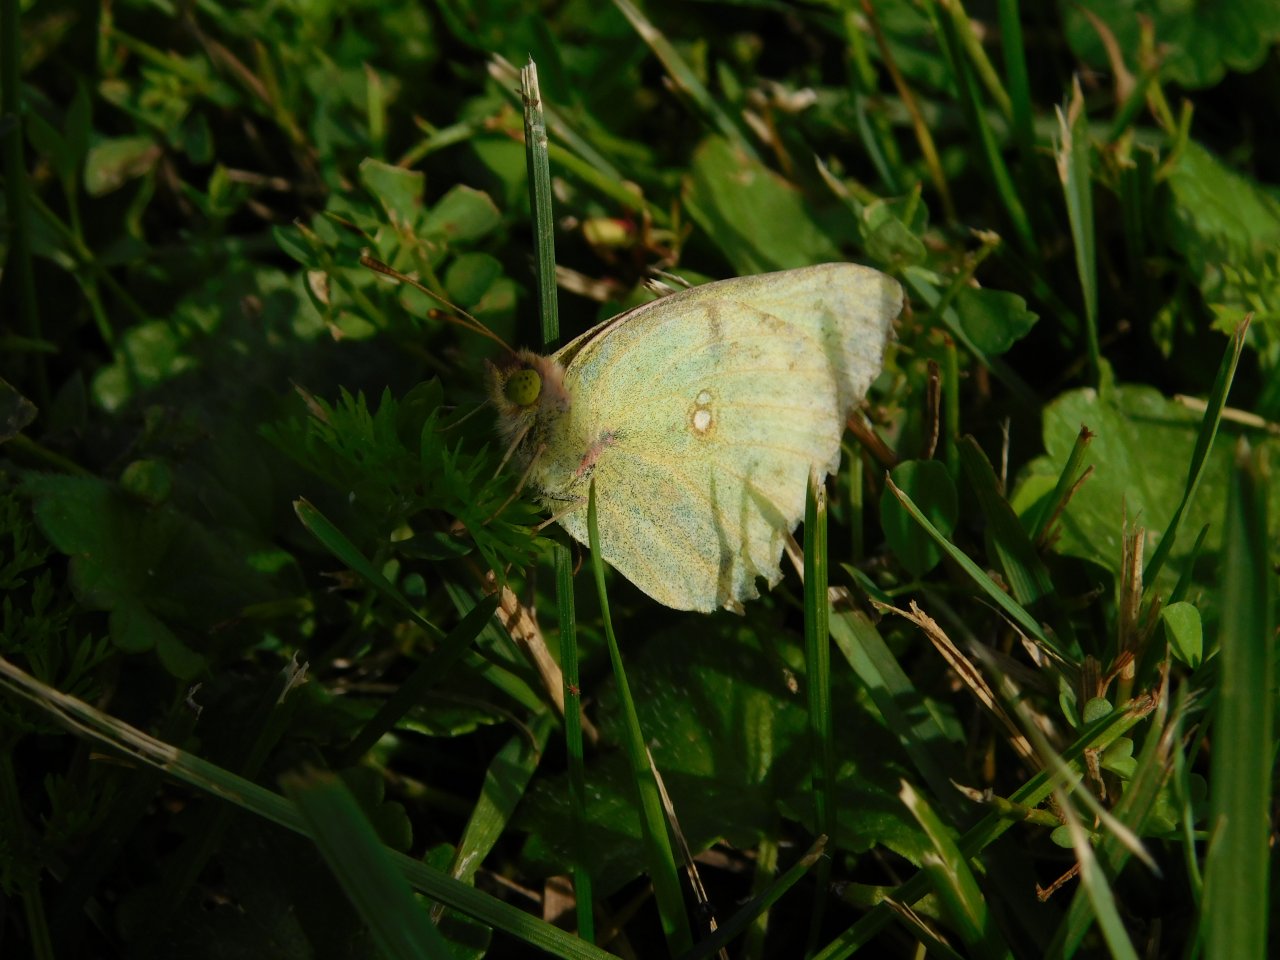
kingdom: Animalia
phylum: Arthropoda
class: Insecta
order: Lepidoptera
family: Pieridae
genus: Colias
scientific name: Colias philodice
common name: Clouded Sulphur
